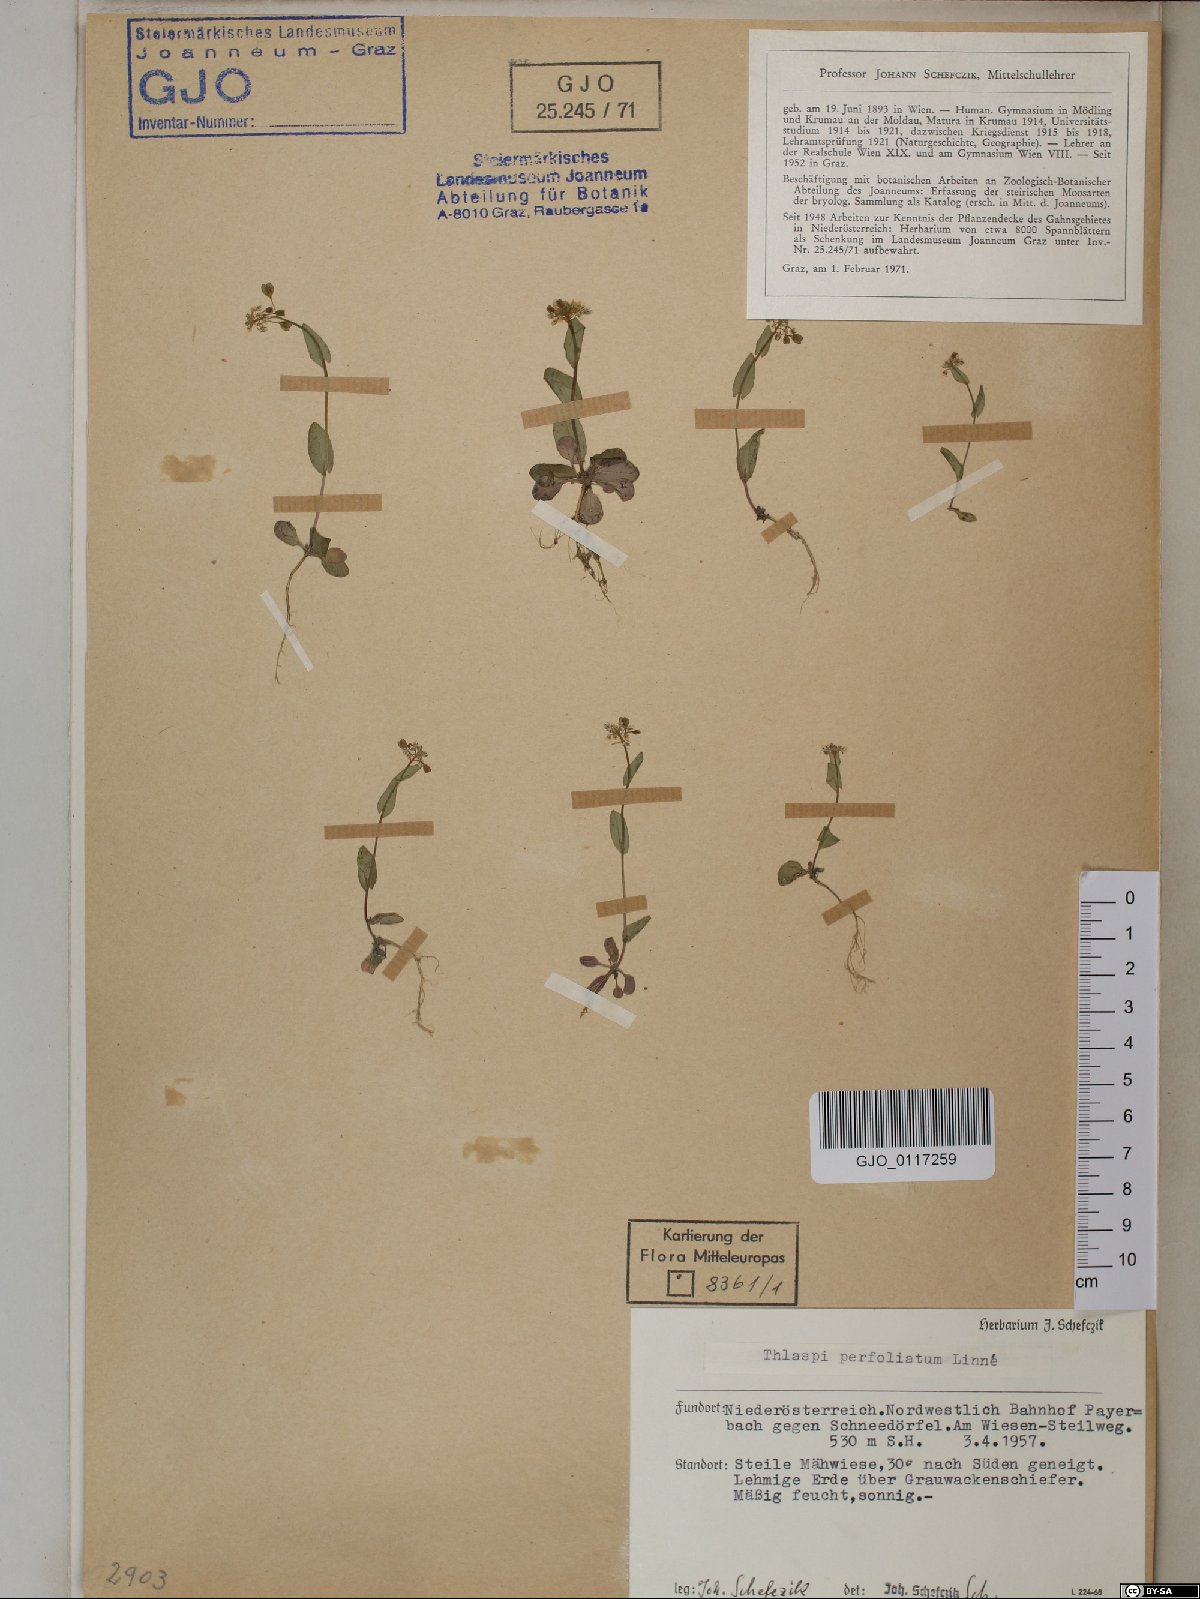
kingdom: Plantae
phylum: Tracheophyta
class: Magnoliopsida
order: Brassicales
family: Brassicaceae
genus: Noccaea
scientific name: Noccaea perfoliata
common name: Perfoliate pennycress
